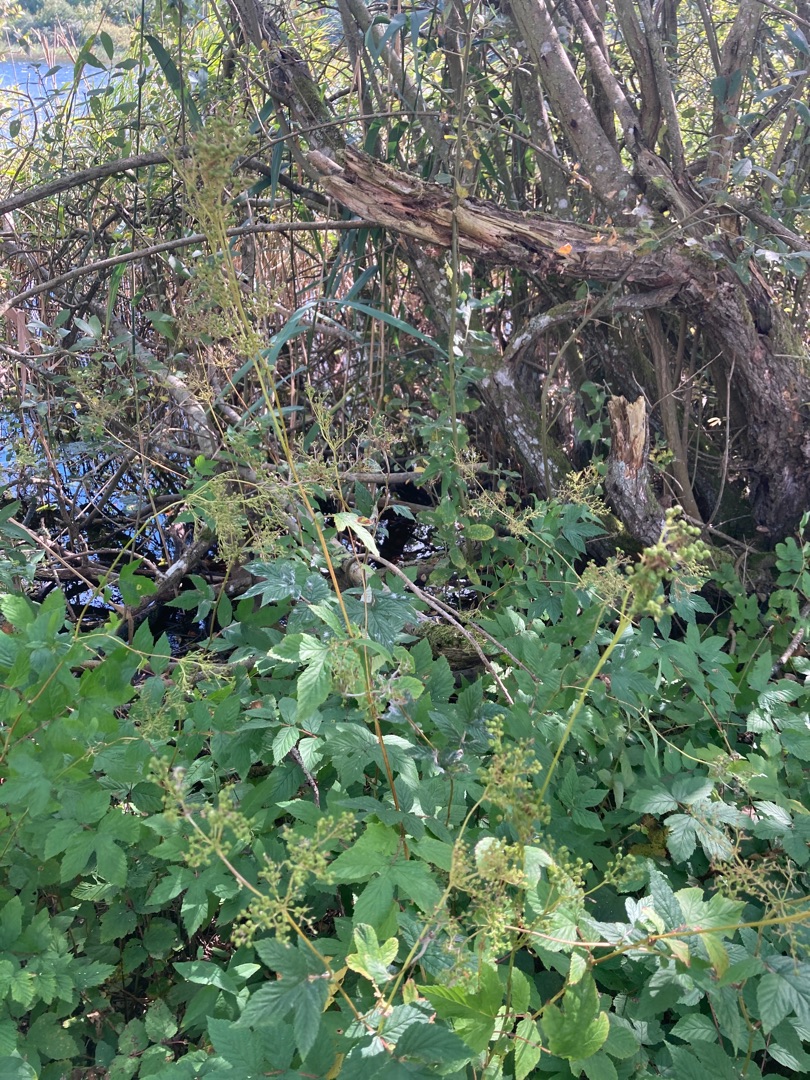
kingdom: Plantae
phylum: Tracheophyta
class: Magnoliopsida
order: Rosales
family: Rosaceae
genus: Filipendula
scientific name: Filipendula ulmaria
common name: Almindelig mjødurt
